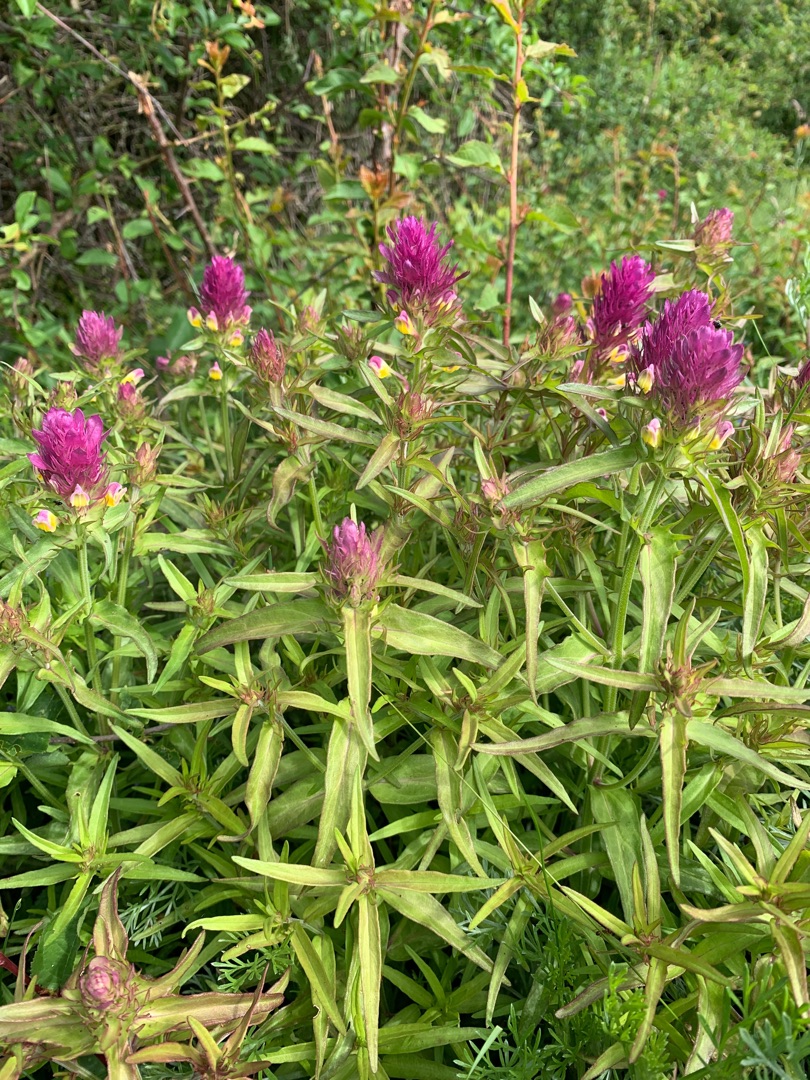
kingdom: Plantae
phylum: Tracheophyta
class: Magnoliopsida
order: Lamiales
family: Orobanchaceae
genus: Melampyrum
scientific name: Melampyrum arvense
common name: Ager-kohvede
